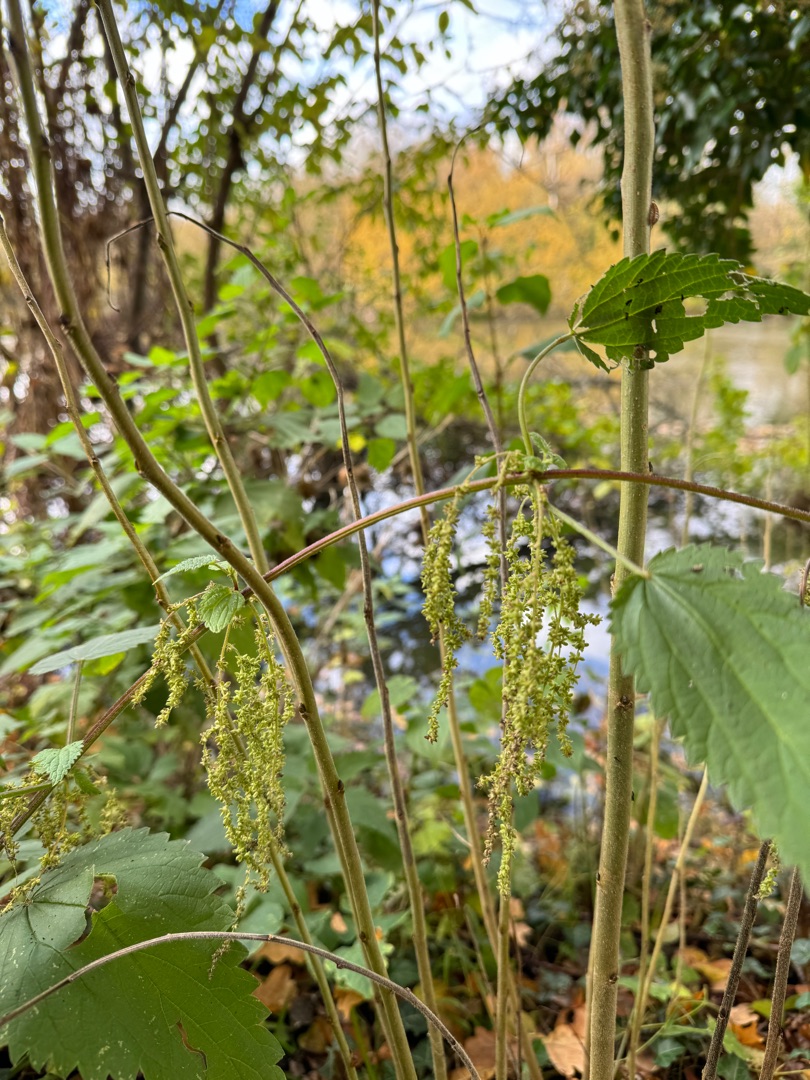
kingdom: Plantae
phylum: Tracheophyta
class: Magnoliopsida
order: Rosales
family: Urticaceae
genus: Urtica
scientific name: Urtica dioica
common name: Stor nælde
